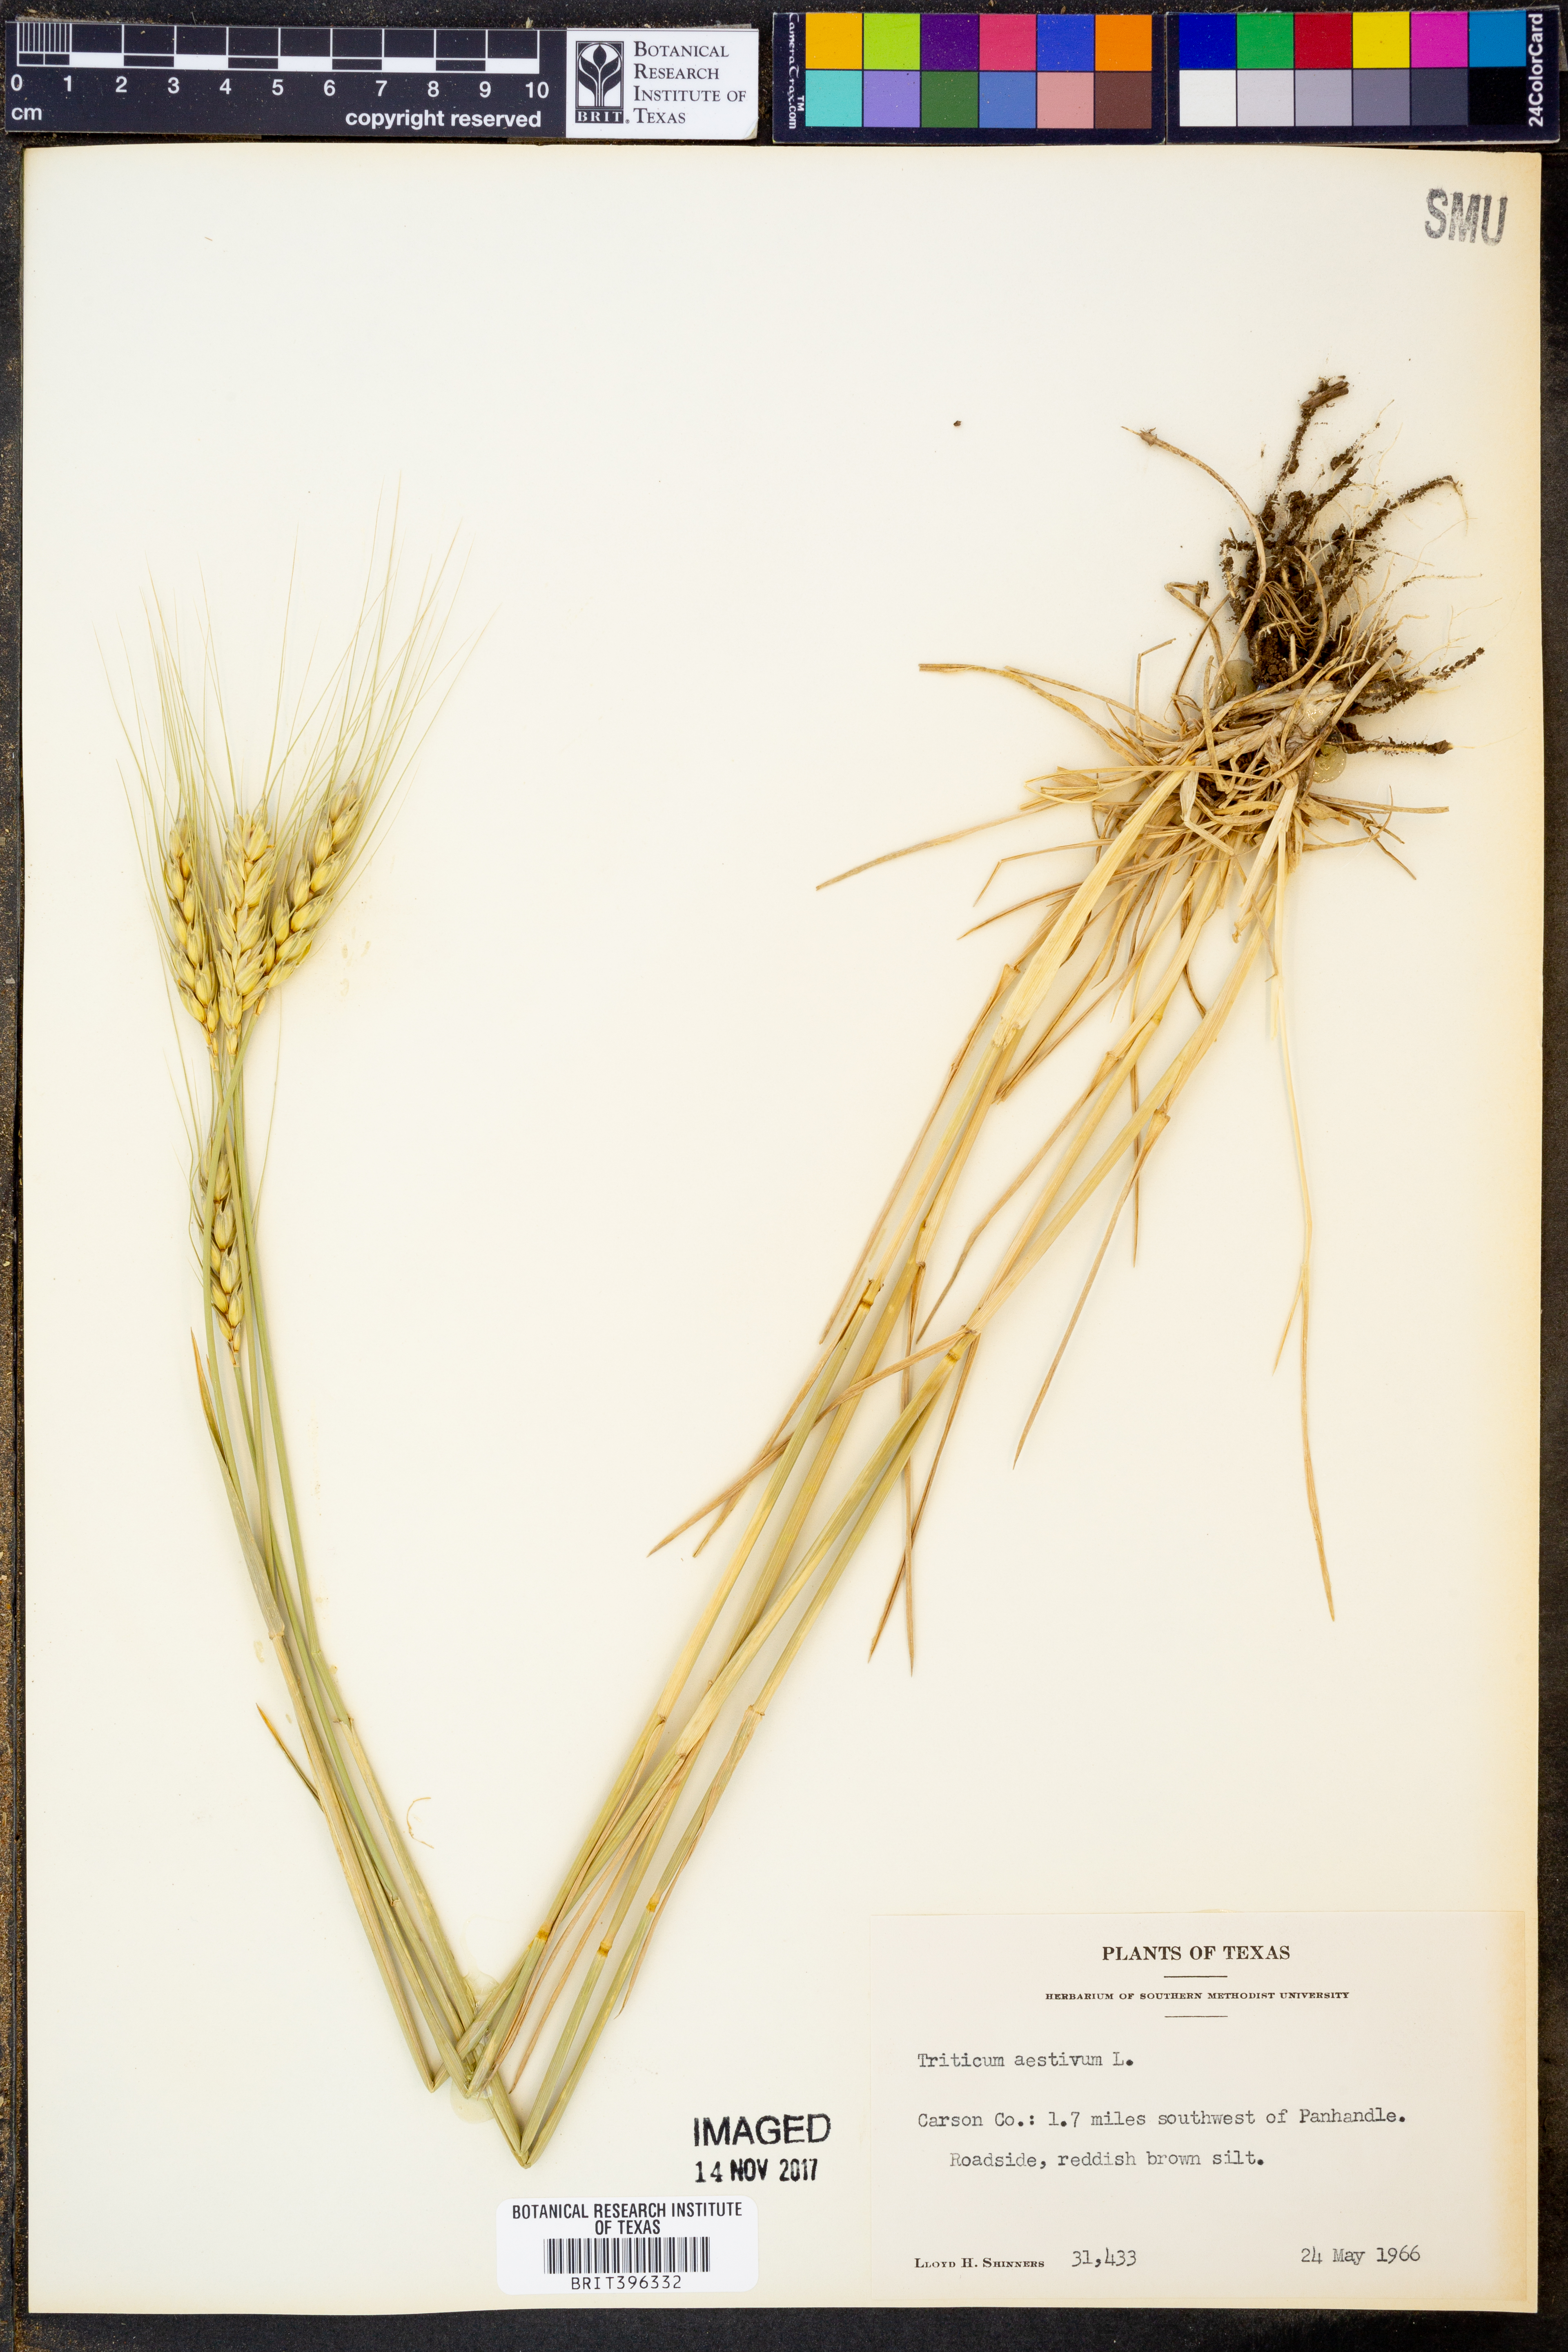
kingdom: Plantae
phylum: Tracheophyta
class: Liliopsida
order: Poales
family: Poaceae
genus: Triticum
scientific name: Triticum aestivum
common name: Common wheat
